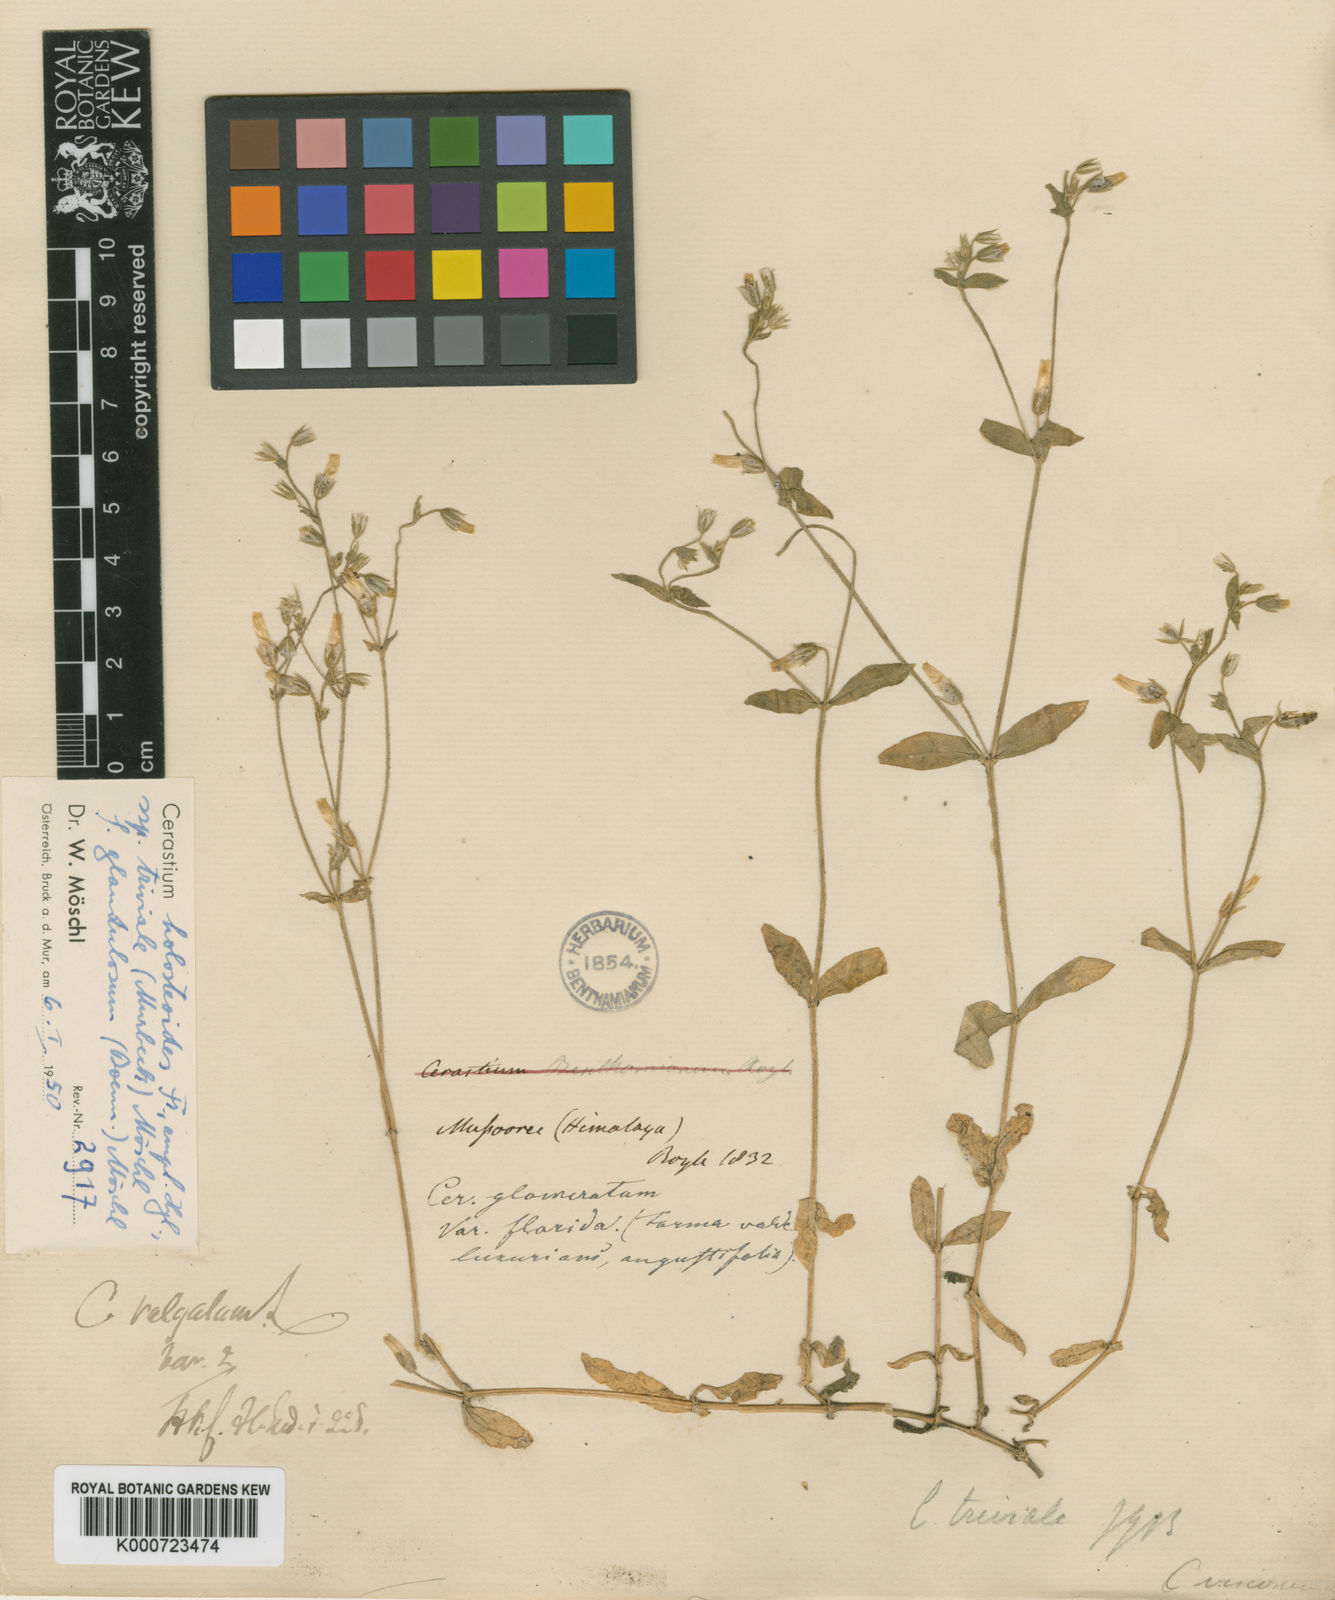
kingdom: Plantae
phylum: Tracheophyta
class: Magnoliopsida
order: Caryophyllales
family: Caryophyllaceae
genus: Cerastium
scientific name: Cerastium holosteoides
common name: Big chickweed
